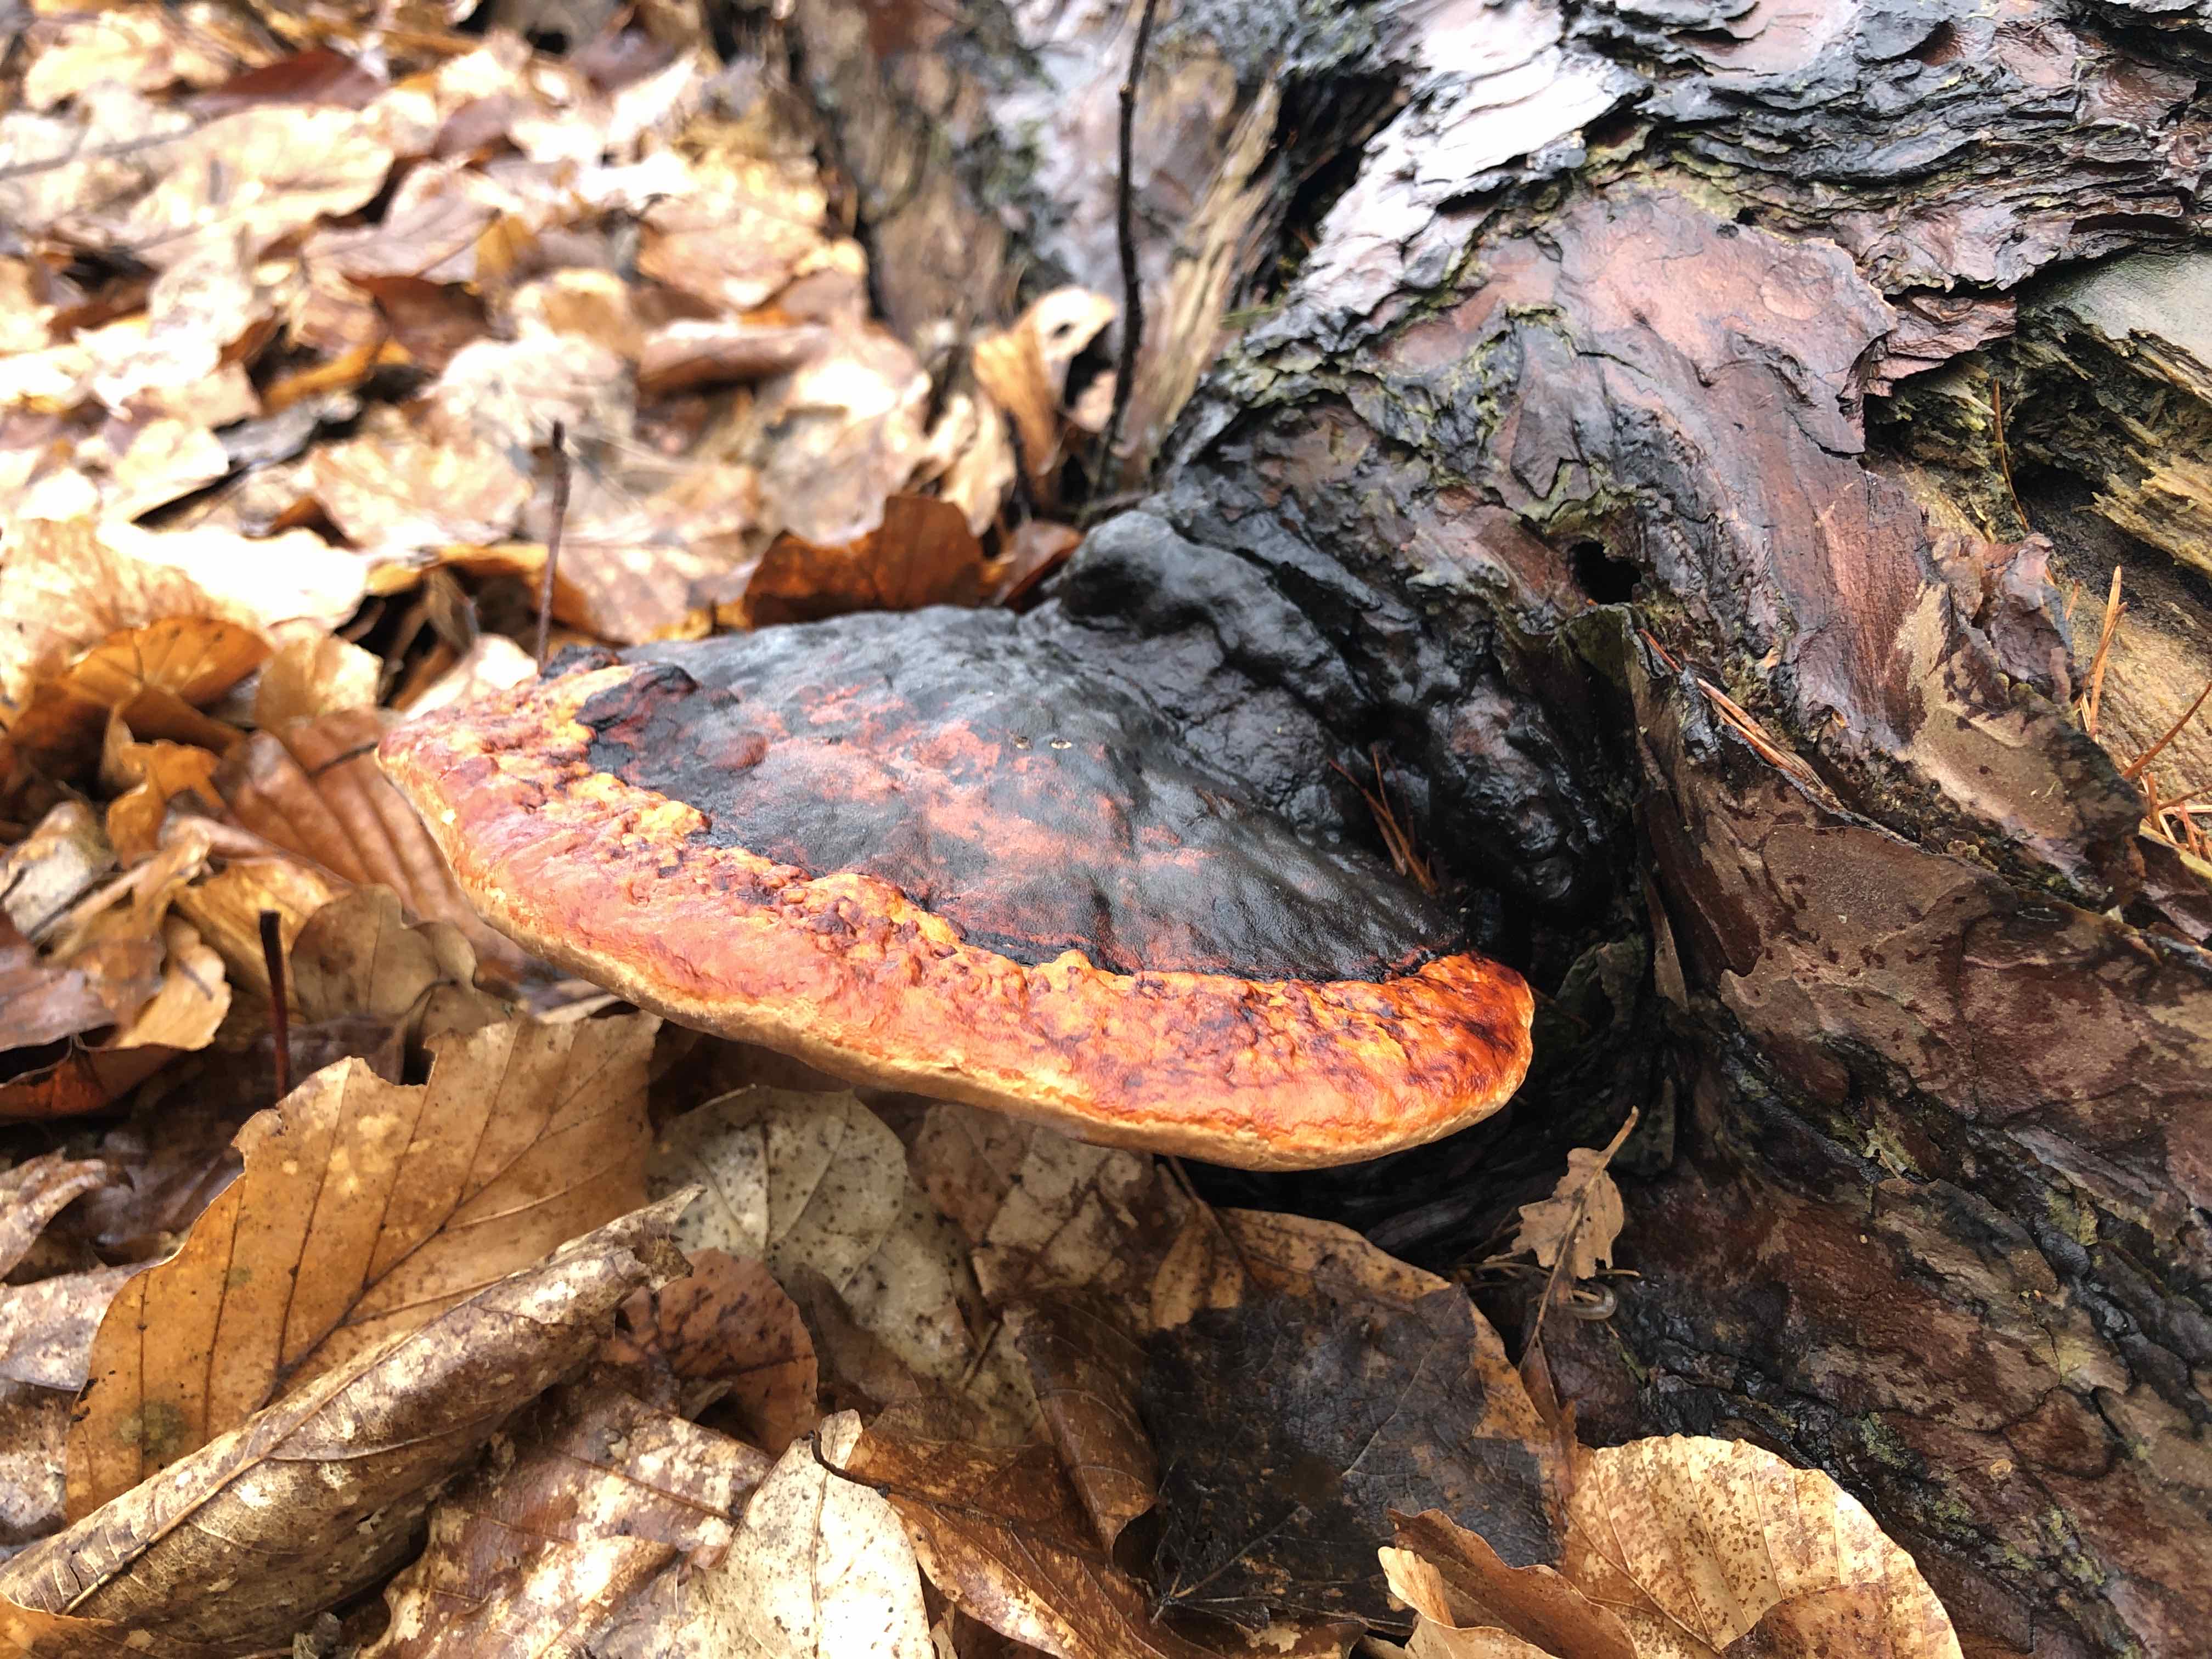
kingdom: Fungi
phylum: Basidiomycota
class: Agaricomycetes
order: Polyporales
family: Fomitopsidaceae
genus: Fomitopsis
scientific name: Fomitopsis pinicola
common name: randbæltet hovporesvamp
